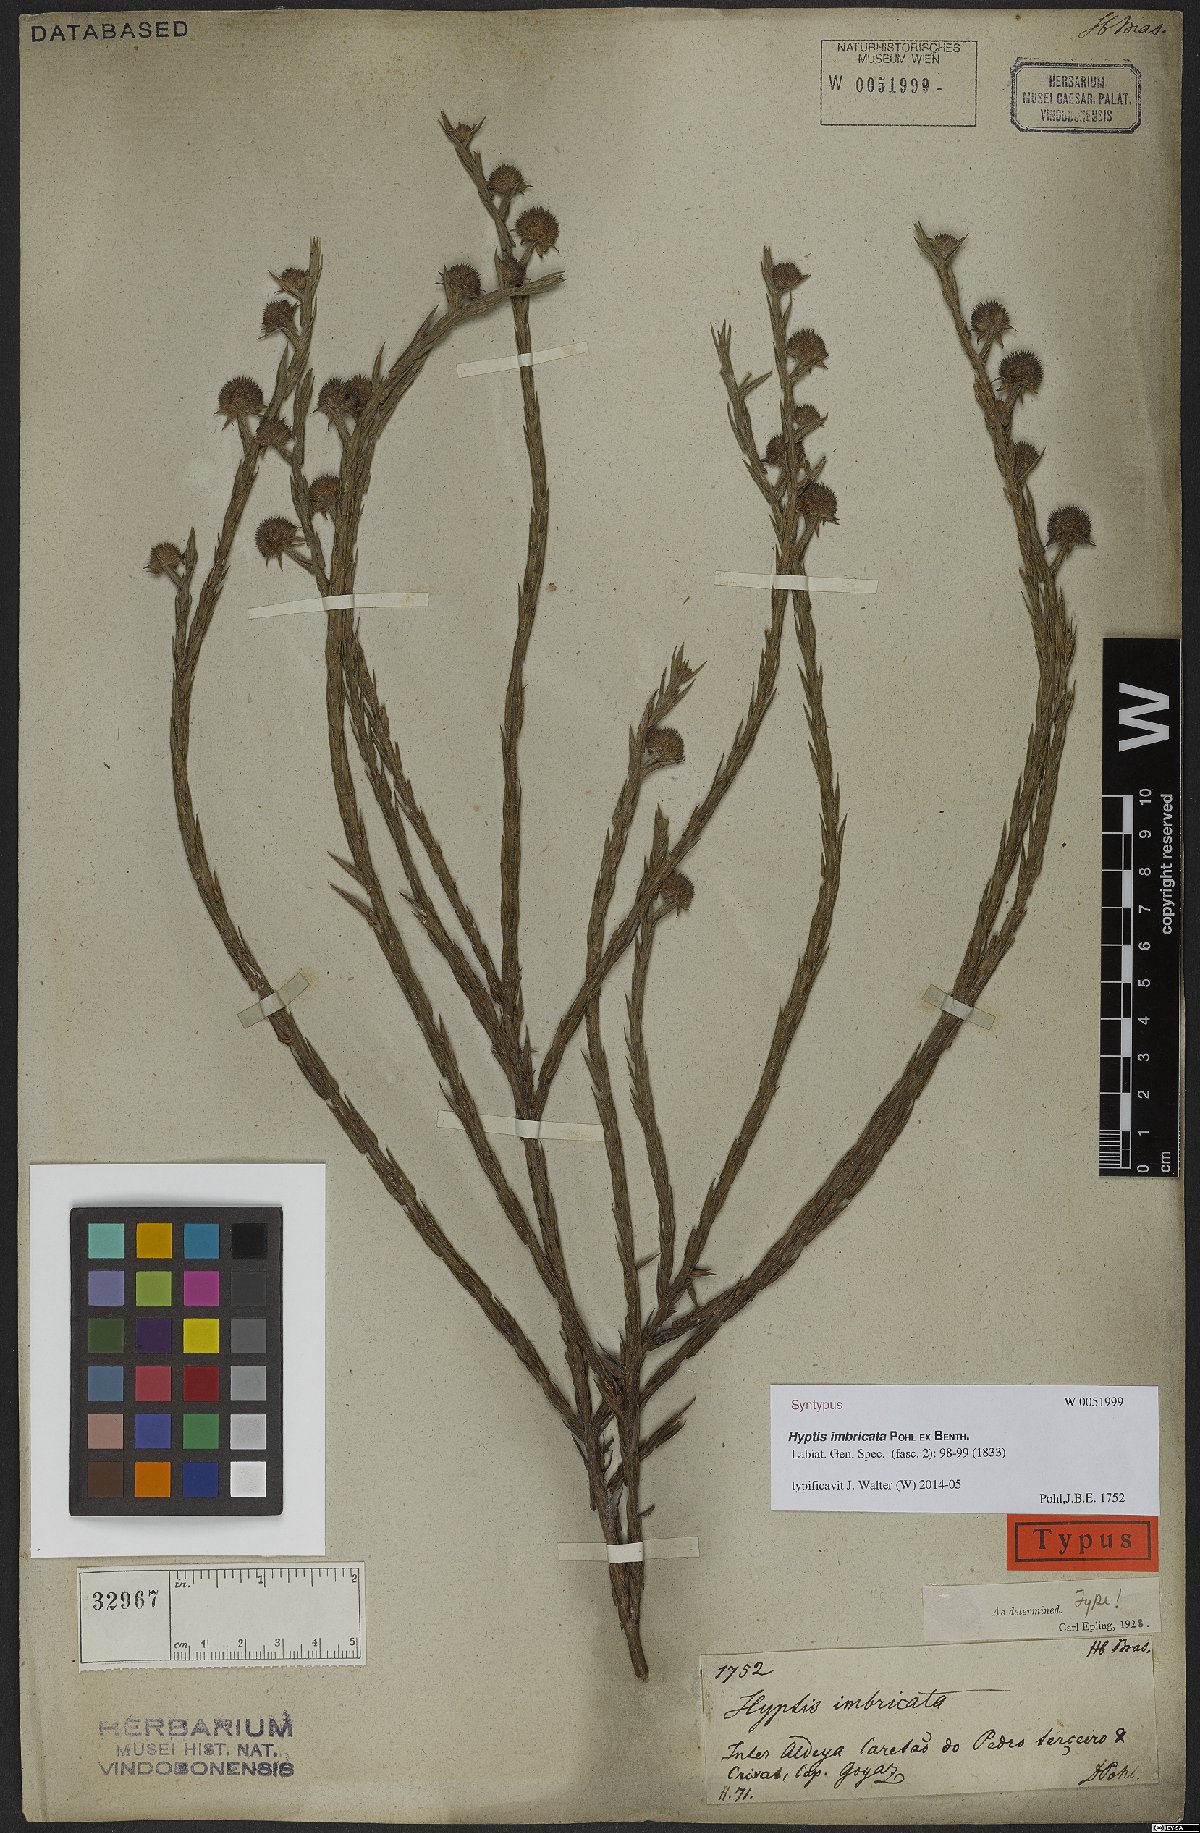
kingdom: Plantae
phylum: Tracheophyta
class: Magnoliopsida
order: Lamiales
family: Lamiaceae
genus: Hyptis
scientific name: Hyptis imbricata
